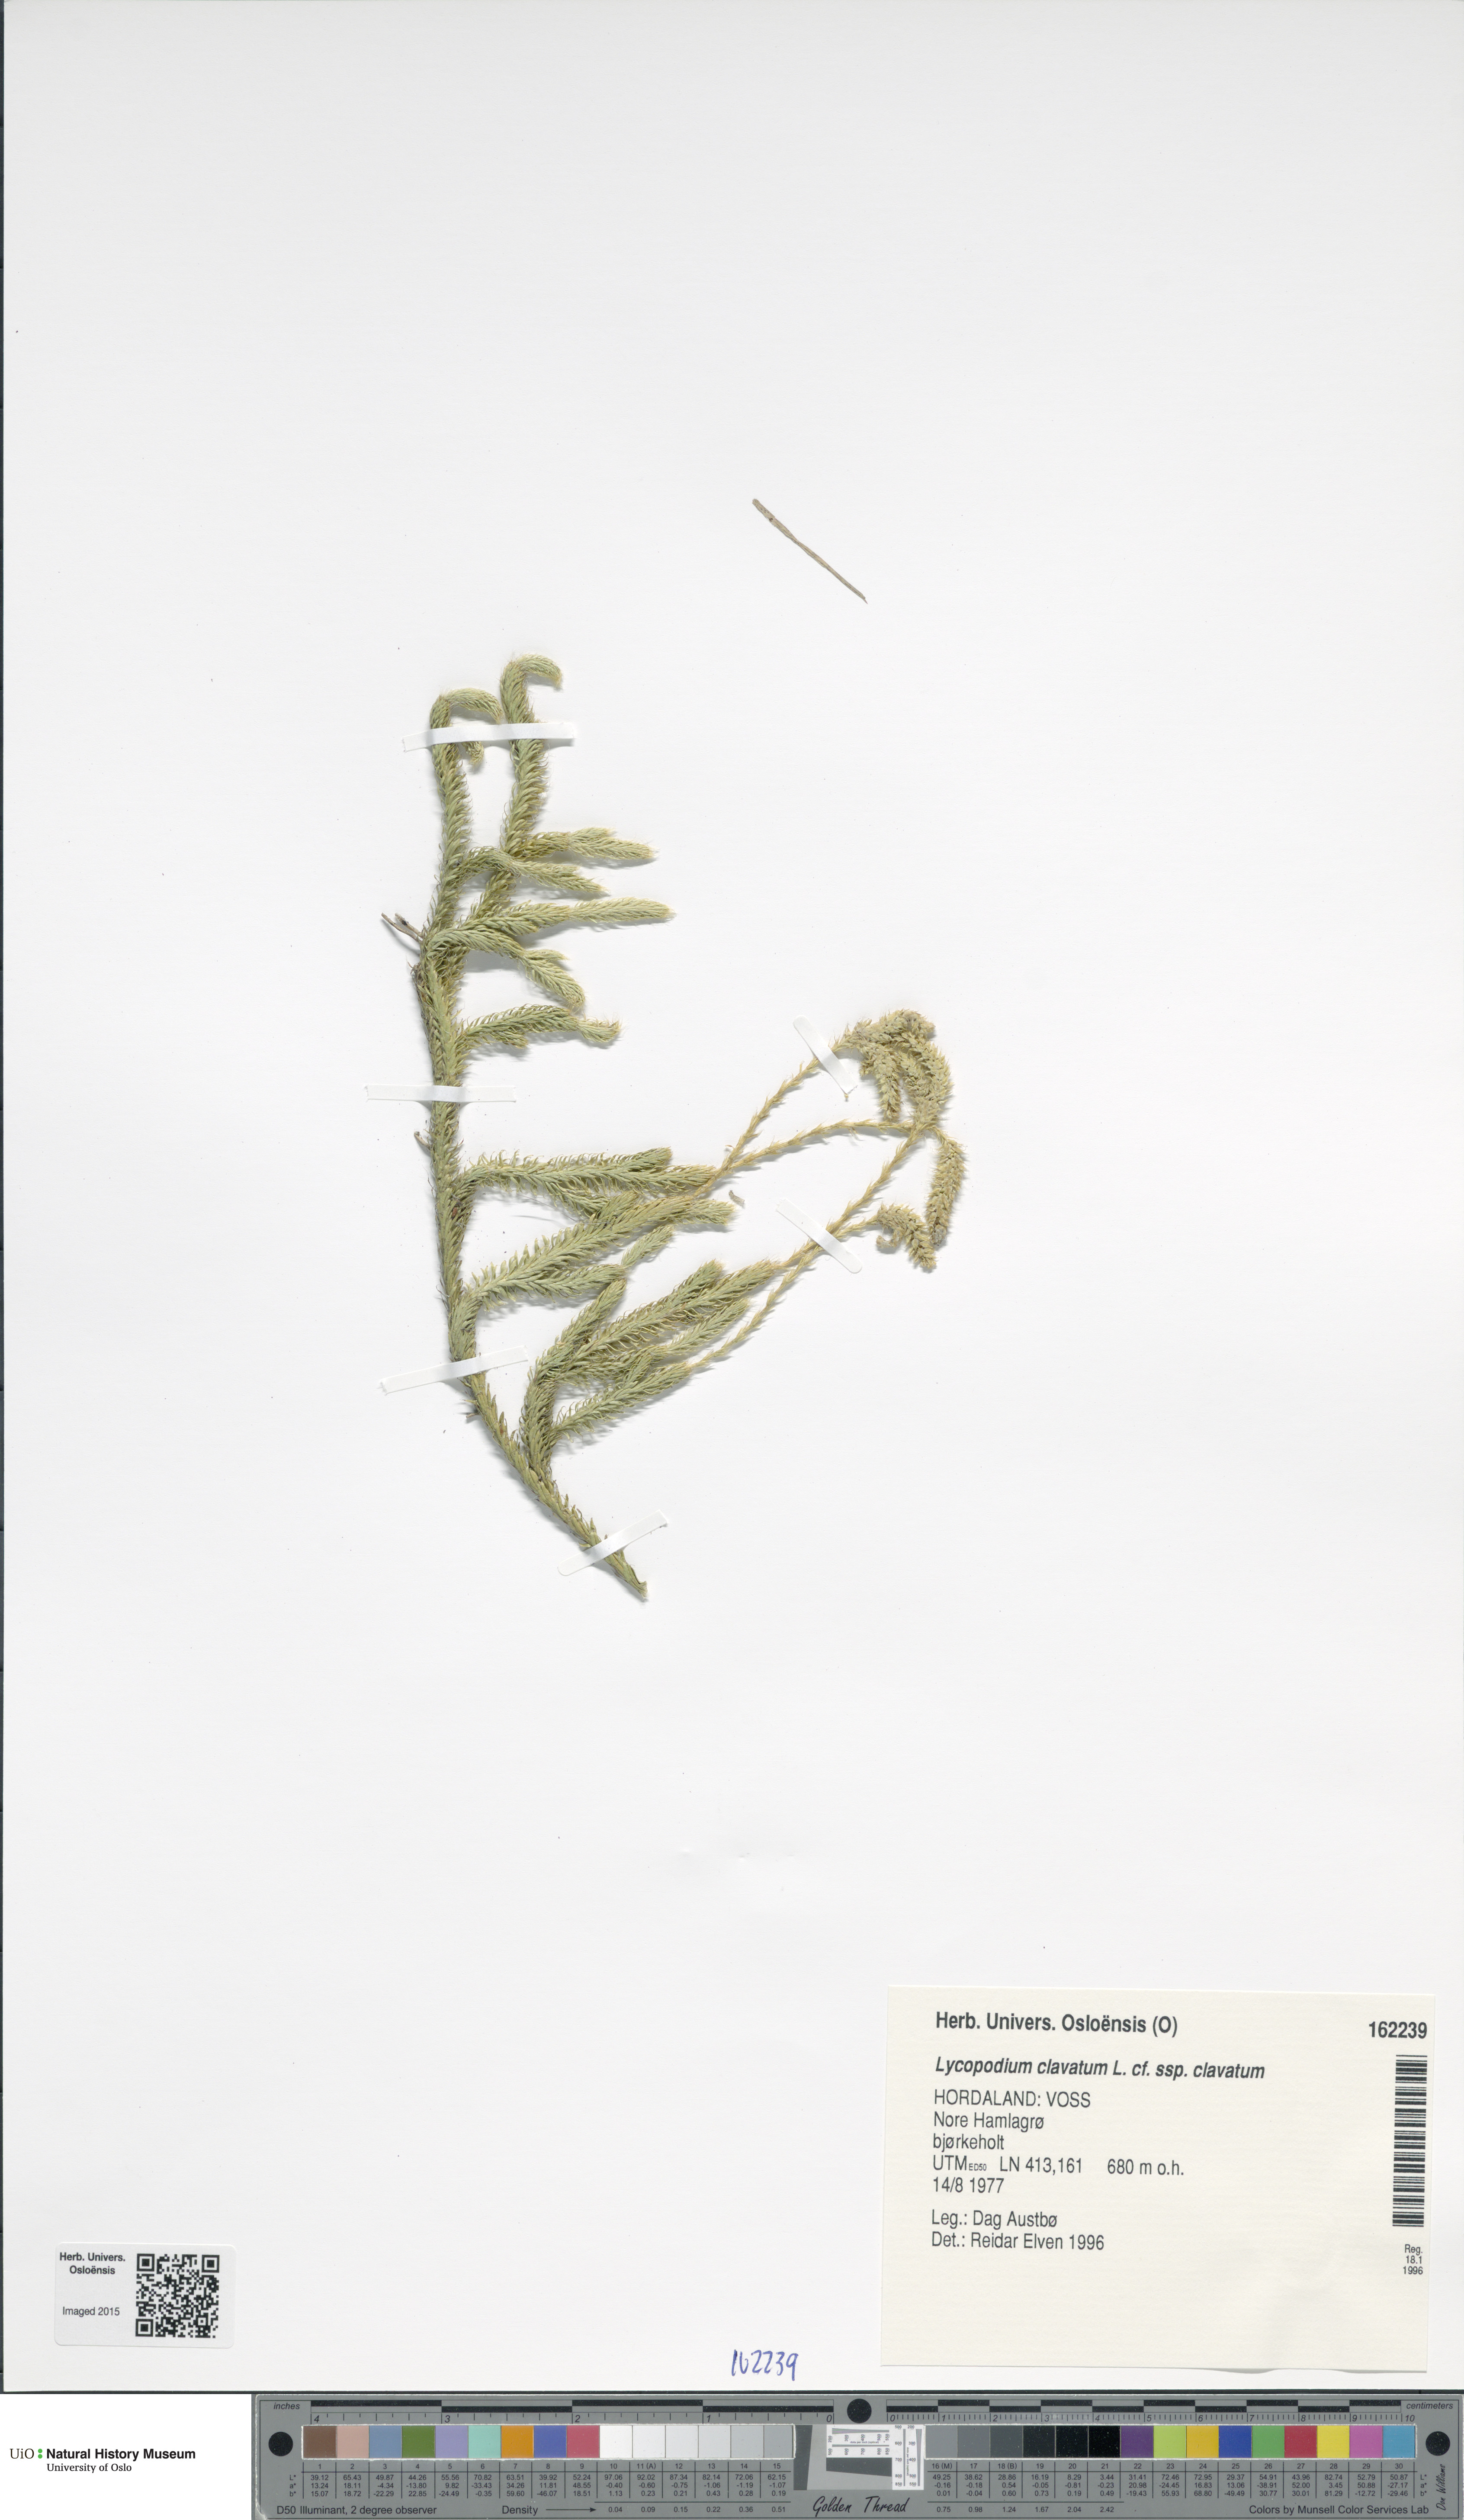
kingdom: Plantae
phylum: Tracheophyta
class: Lycopodiopsida
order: Lycopodiales
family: Lycopodiaceae
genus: Lycopodium
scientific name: Lycopodium clavatum
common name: Stag's-horn clubmoss
